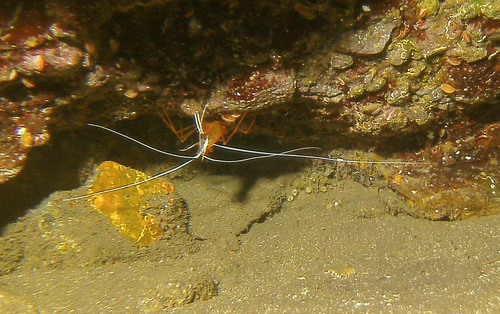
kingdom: Animalia
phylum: Arthropoda
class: Malacostraca
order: Decapoda
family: Lysmatidae
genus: Lysmata
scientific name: Lysmata grabhami
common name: Scarlet-striped cleaning shrimp
